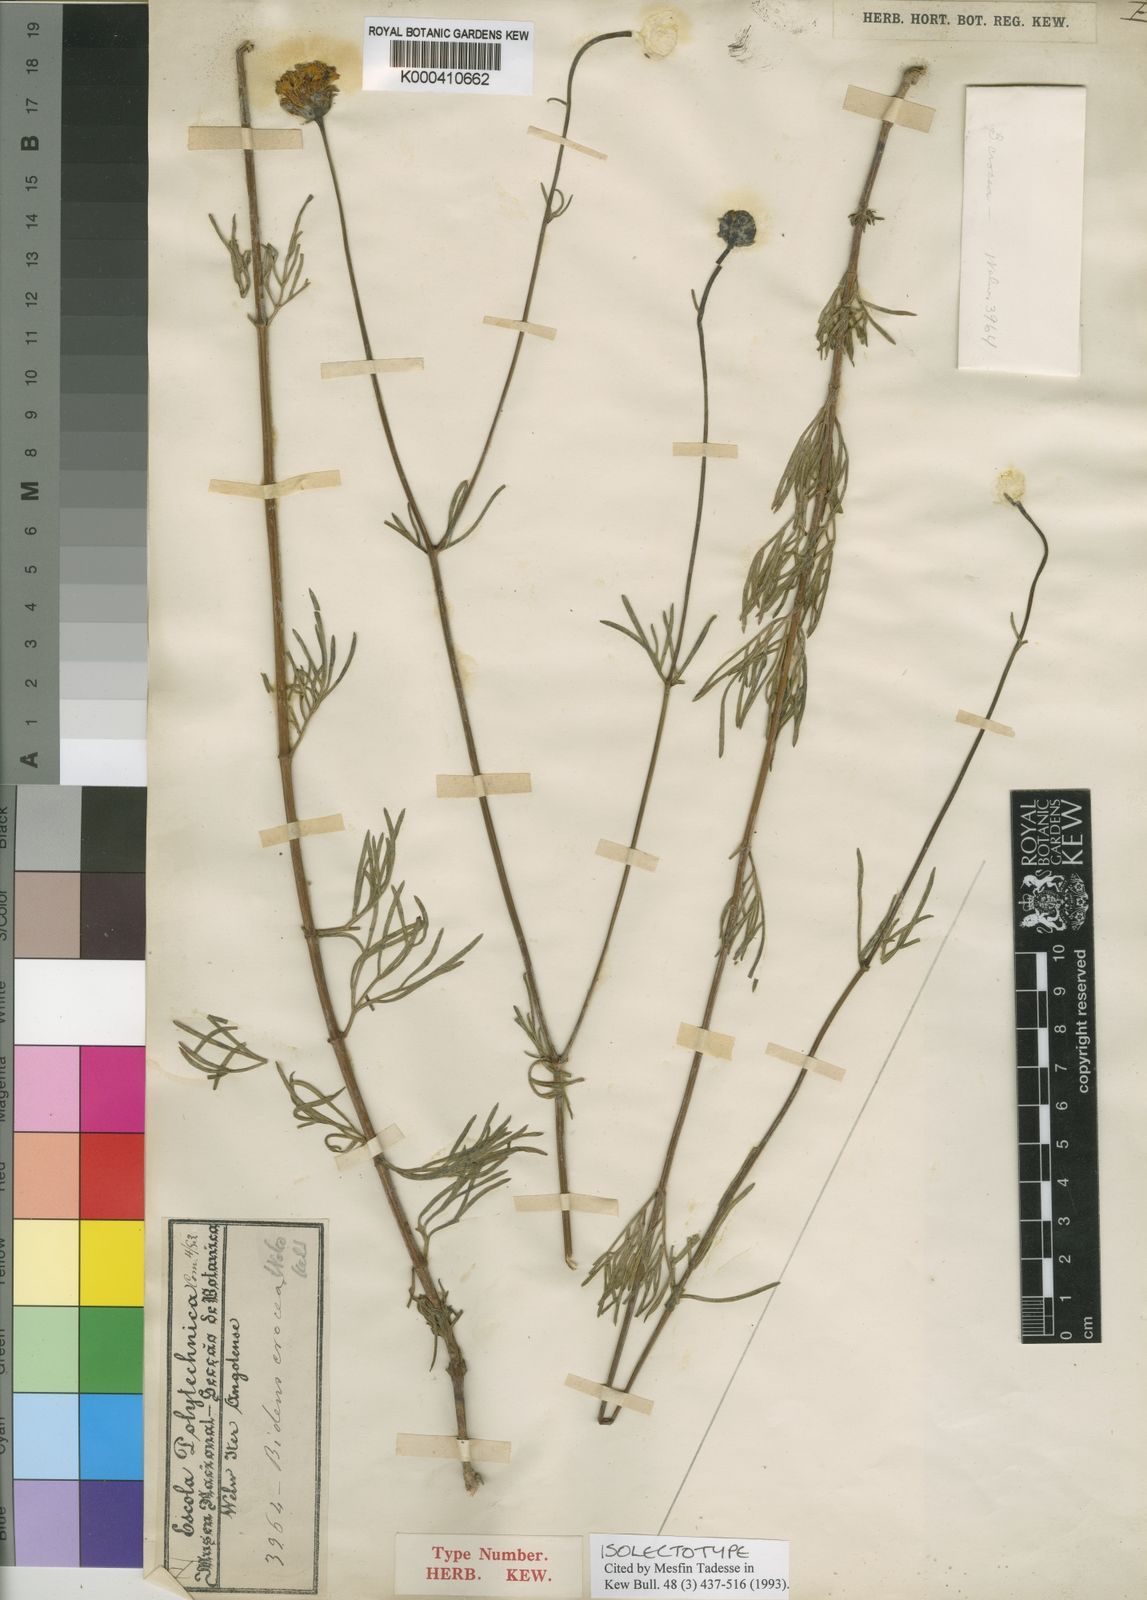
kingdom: Plantae
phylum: Tracheophyta
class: Magnoliopsida
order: Asterales
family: Asteraceae
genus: Bidens
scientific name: Bidens crocea
